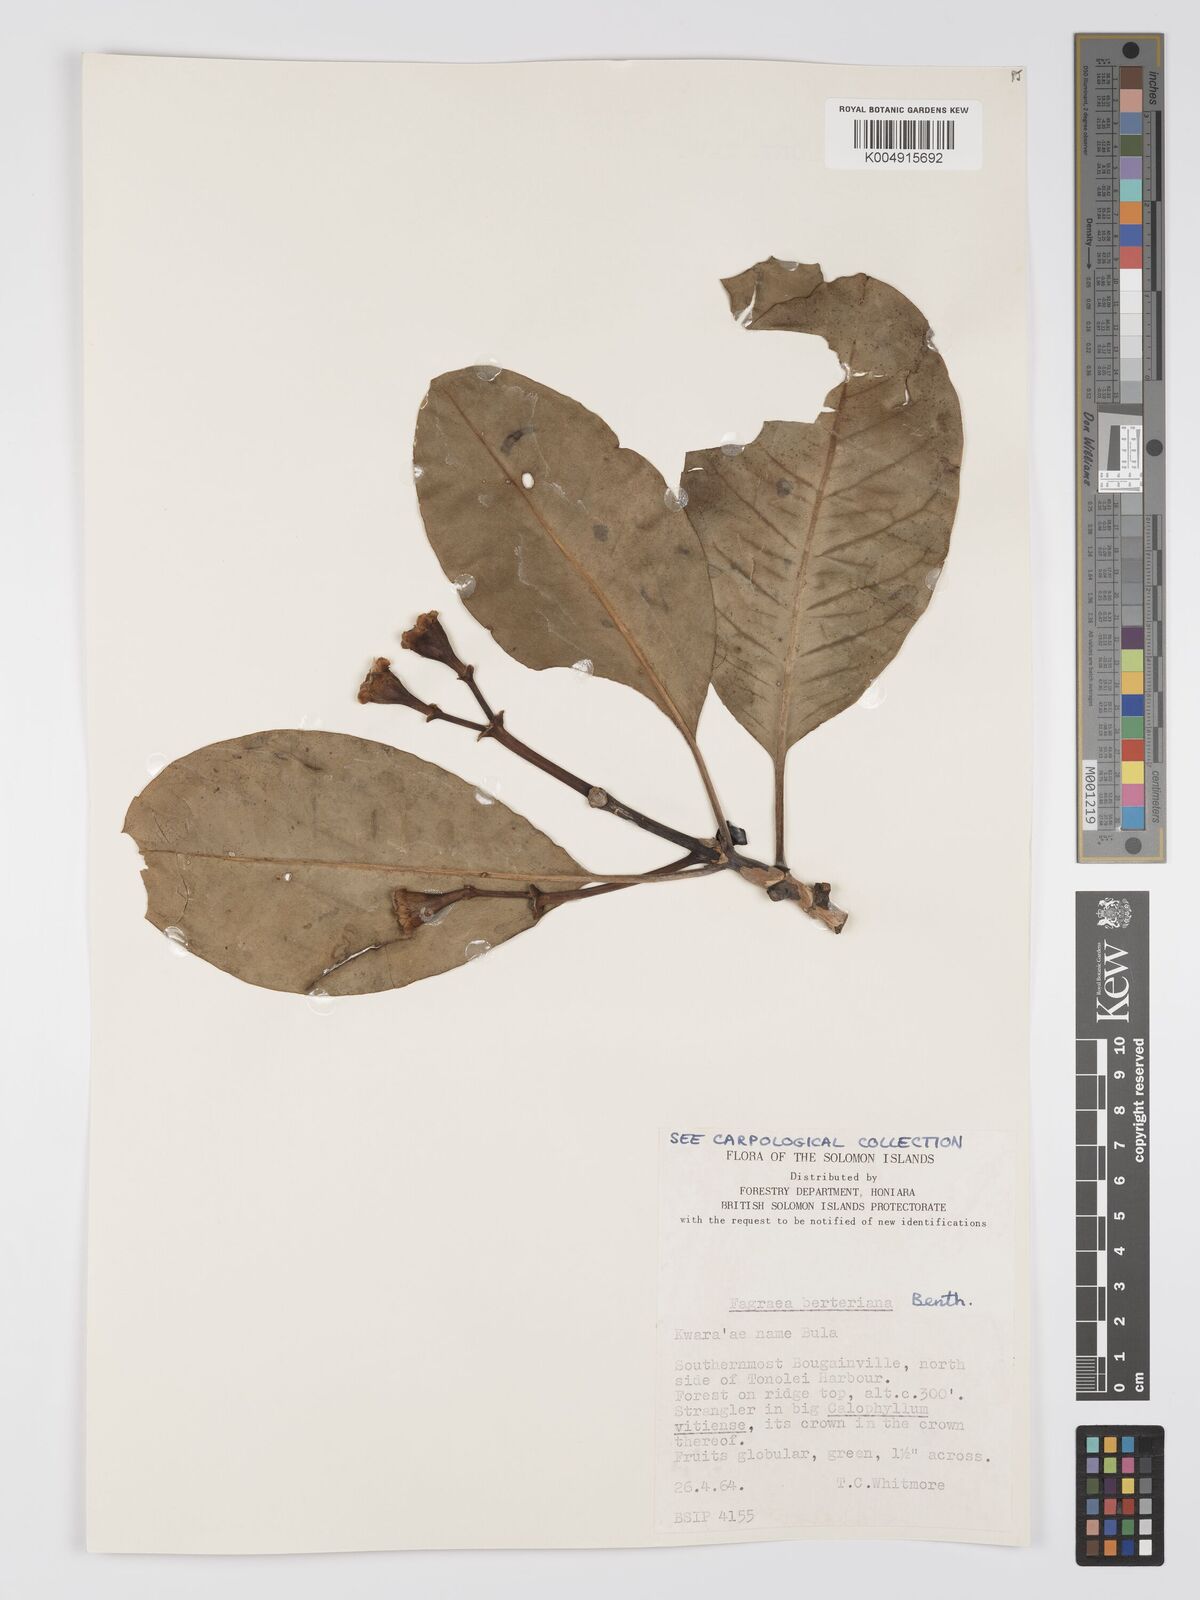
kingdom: Plantae
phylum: Tracheophyta
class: Magnoliopsida
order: Gentianales
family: Gentianaceae
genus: Fagraea
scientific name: Fagraea berteroana
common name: Cape jitta
